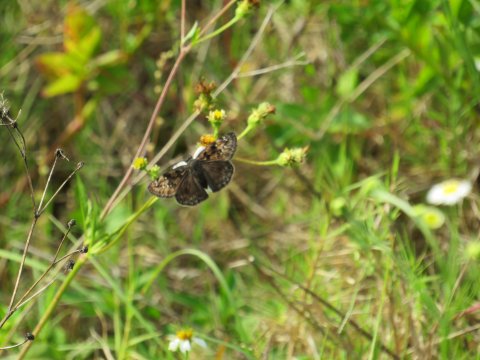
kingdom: Animalia
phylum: Arthropoda
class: Insecta
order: Lepidoptera
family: Hesperiidae
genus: Gesta
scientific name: Gesta
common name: Horace's Duskywing
